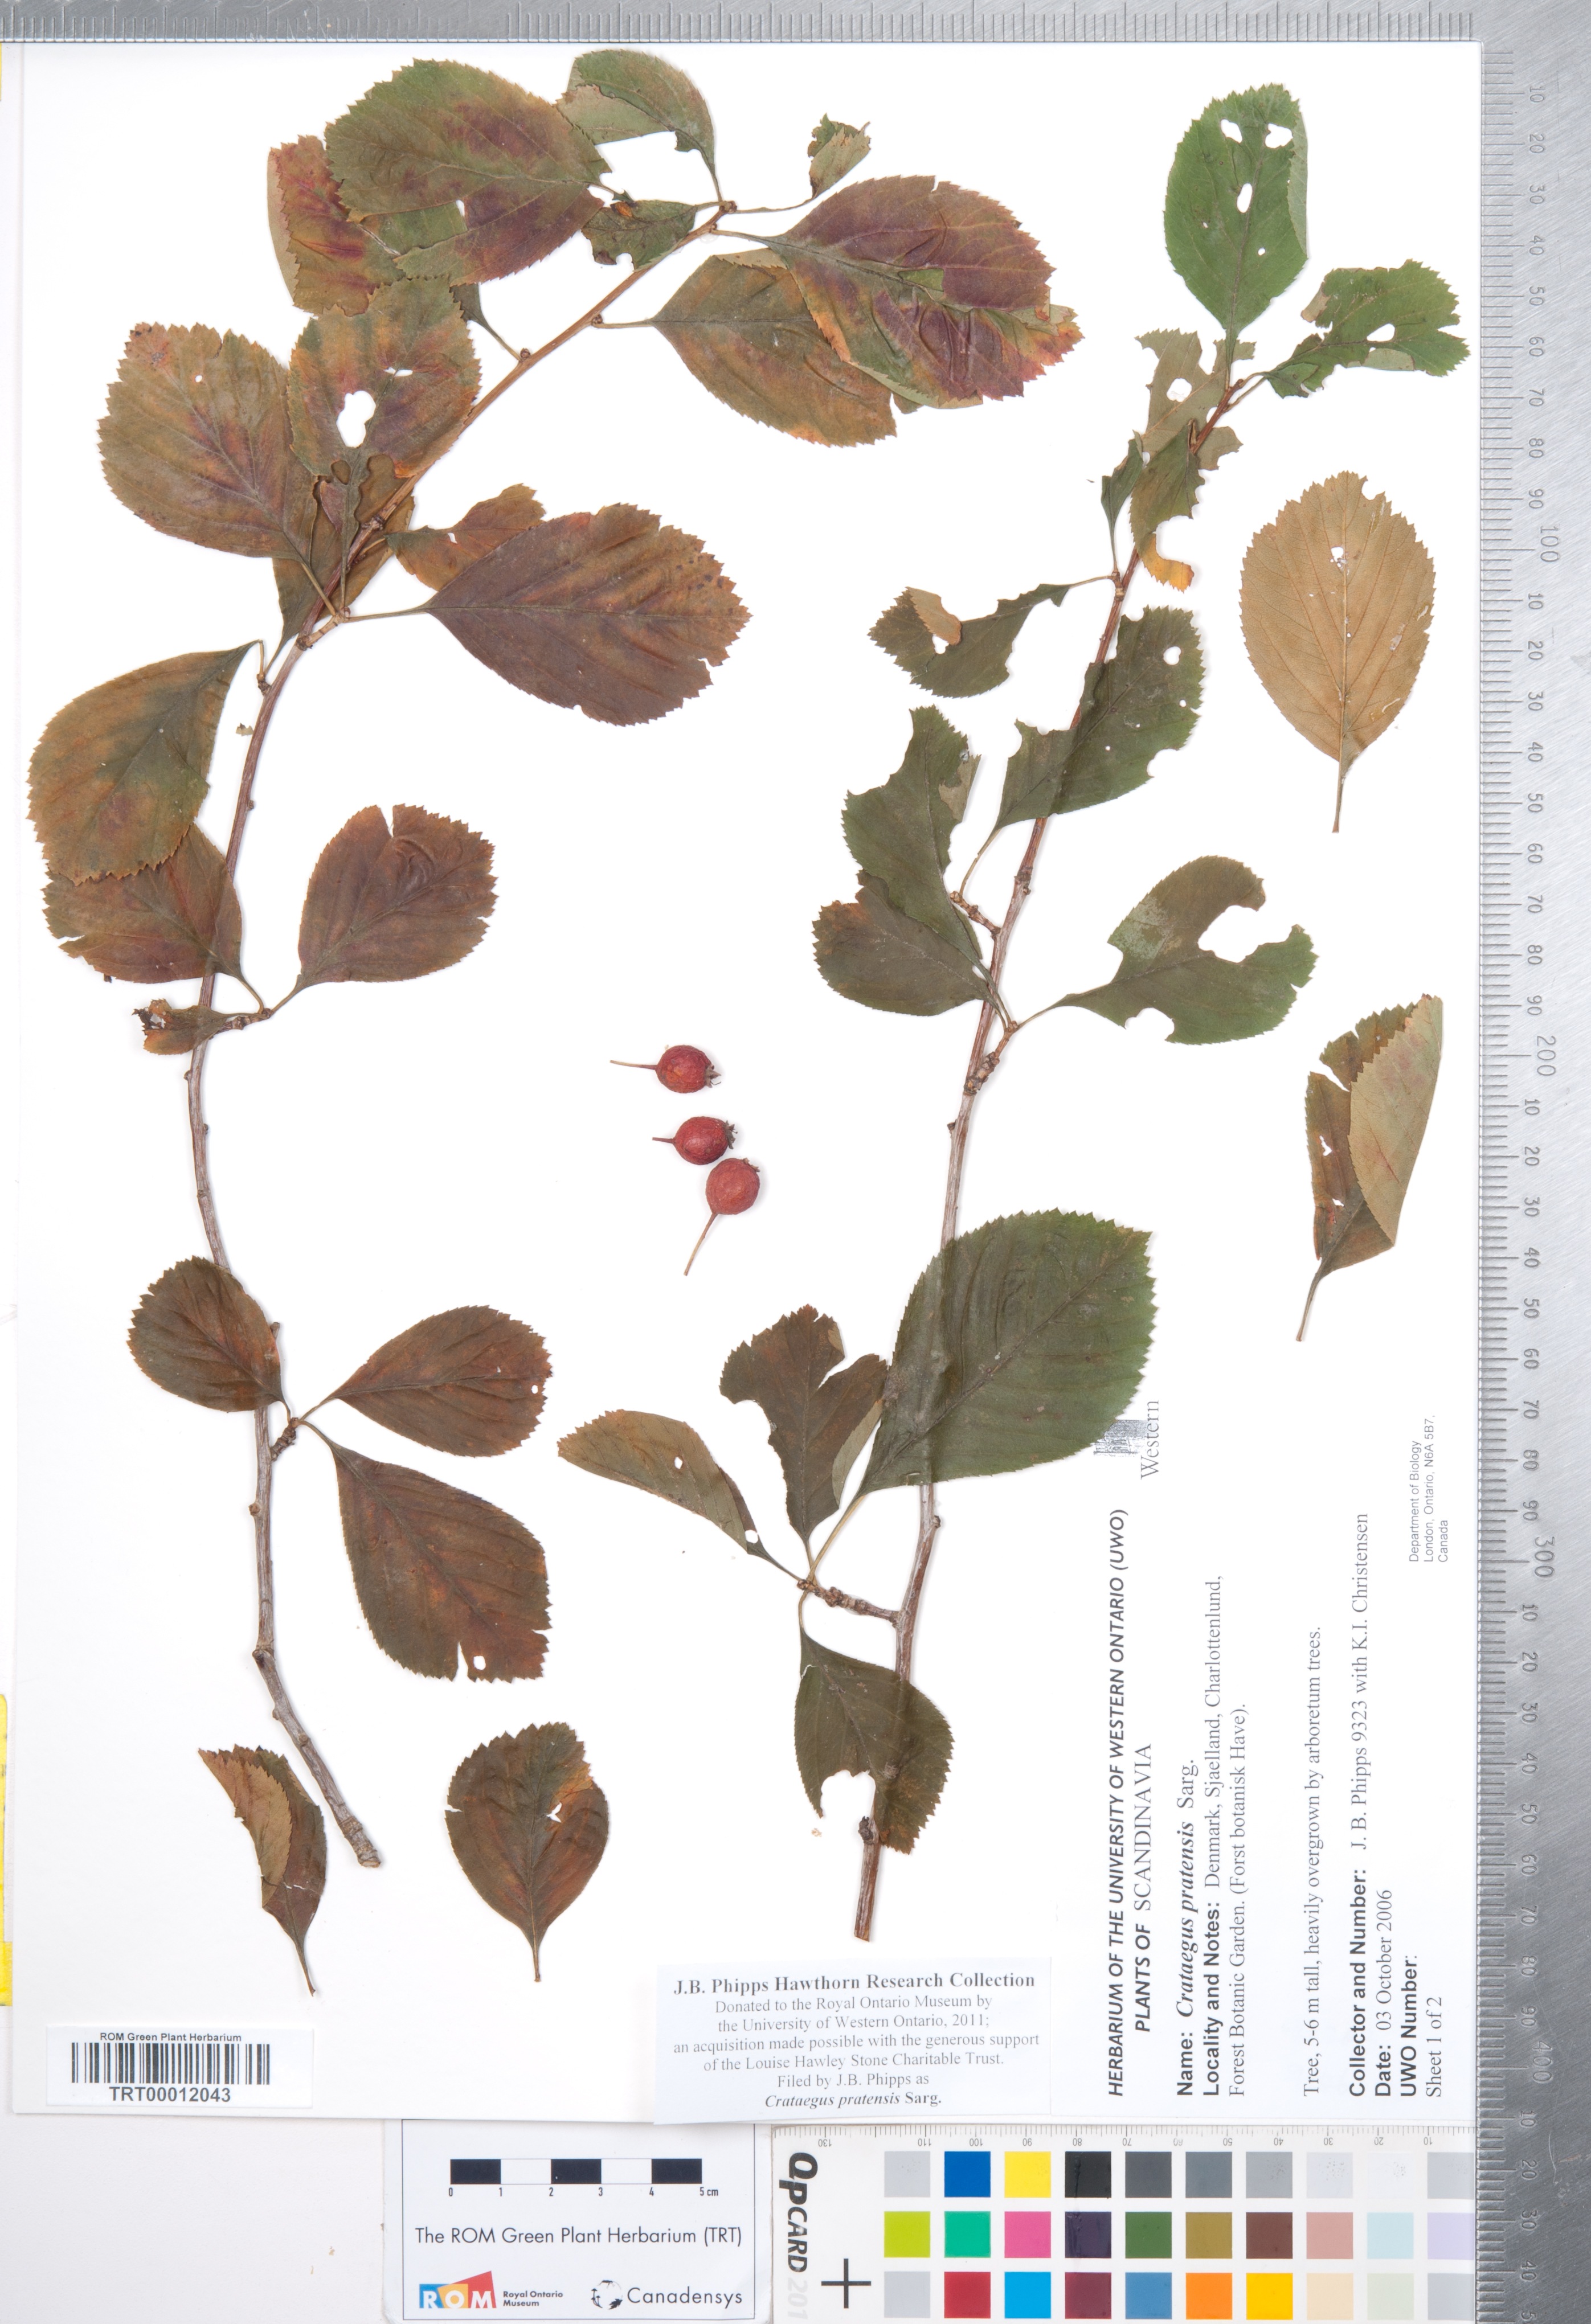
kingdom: Plantae
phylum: Tracheophyta
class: Magnoliopsida
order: Rosales
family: Rosaceae
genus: Crataegus
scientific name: Crataegus punctata
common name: Dotted hawthorn
